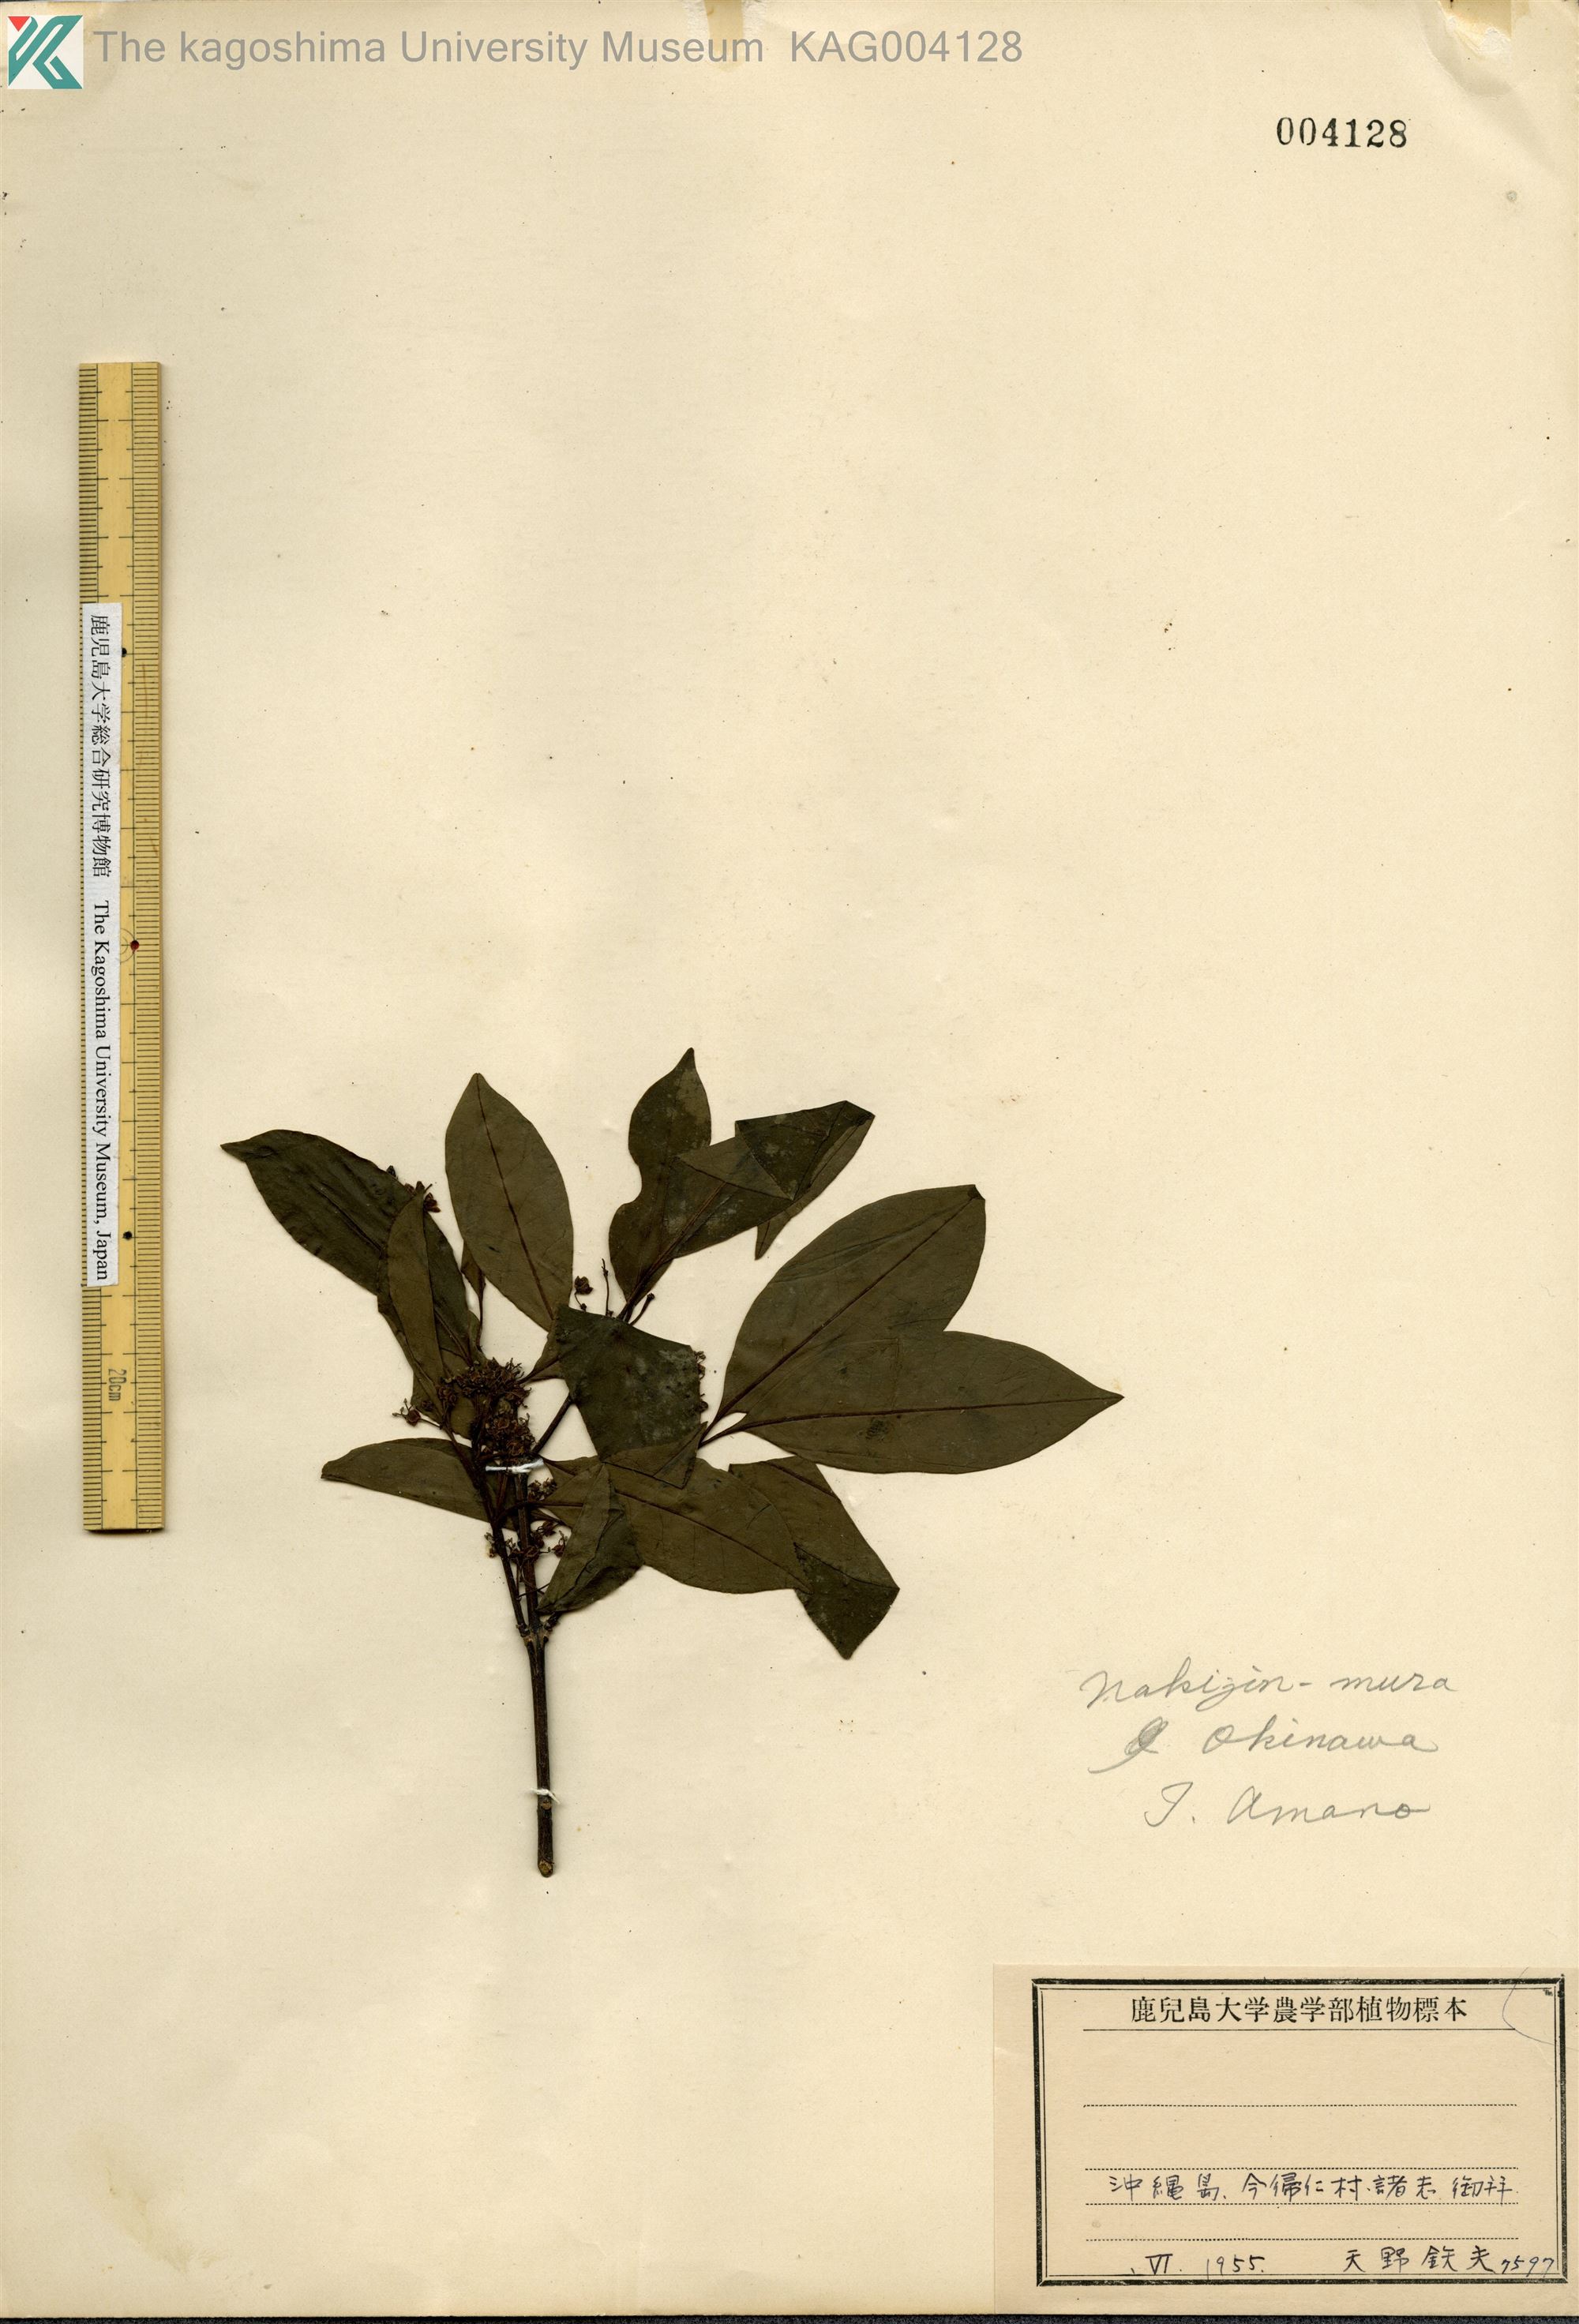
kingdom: Plantae
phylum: Tracheophyta
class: Magnoliopsida
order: Aquifoliales
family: Aquifoliaceae
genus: Ilex
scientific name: Ilex rotunda
